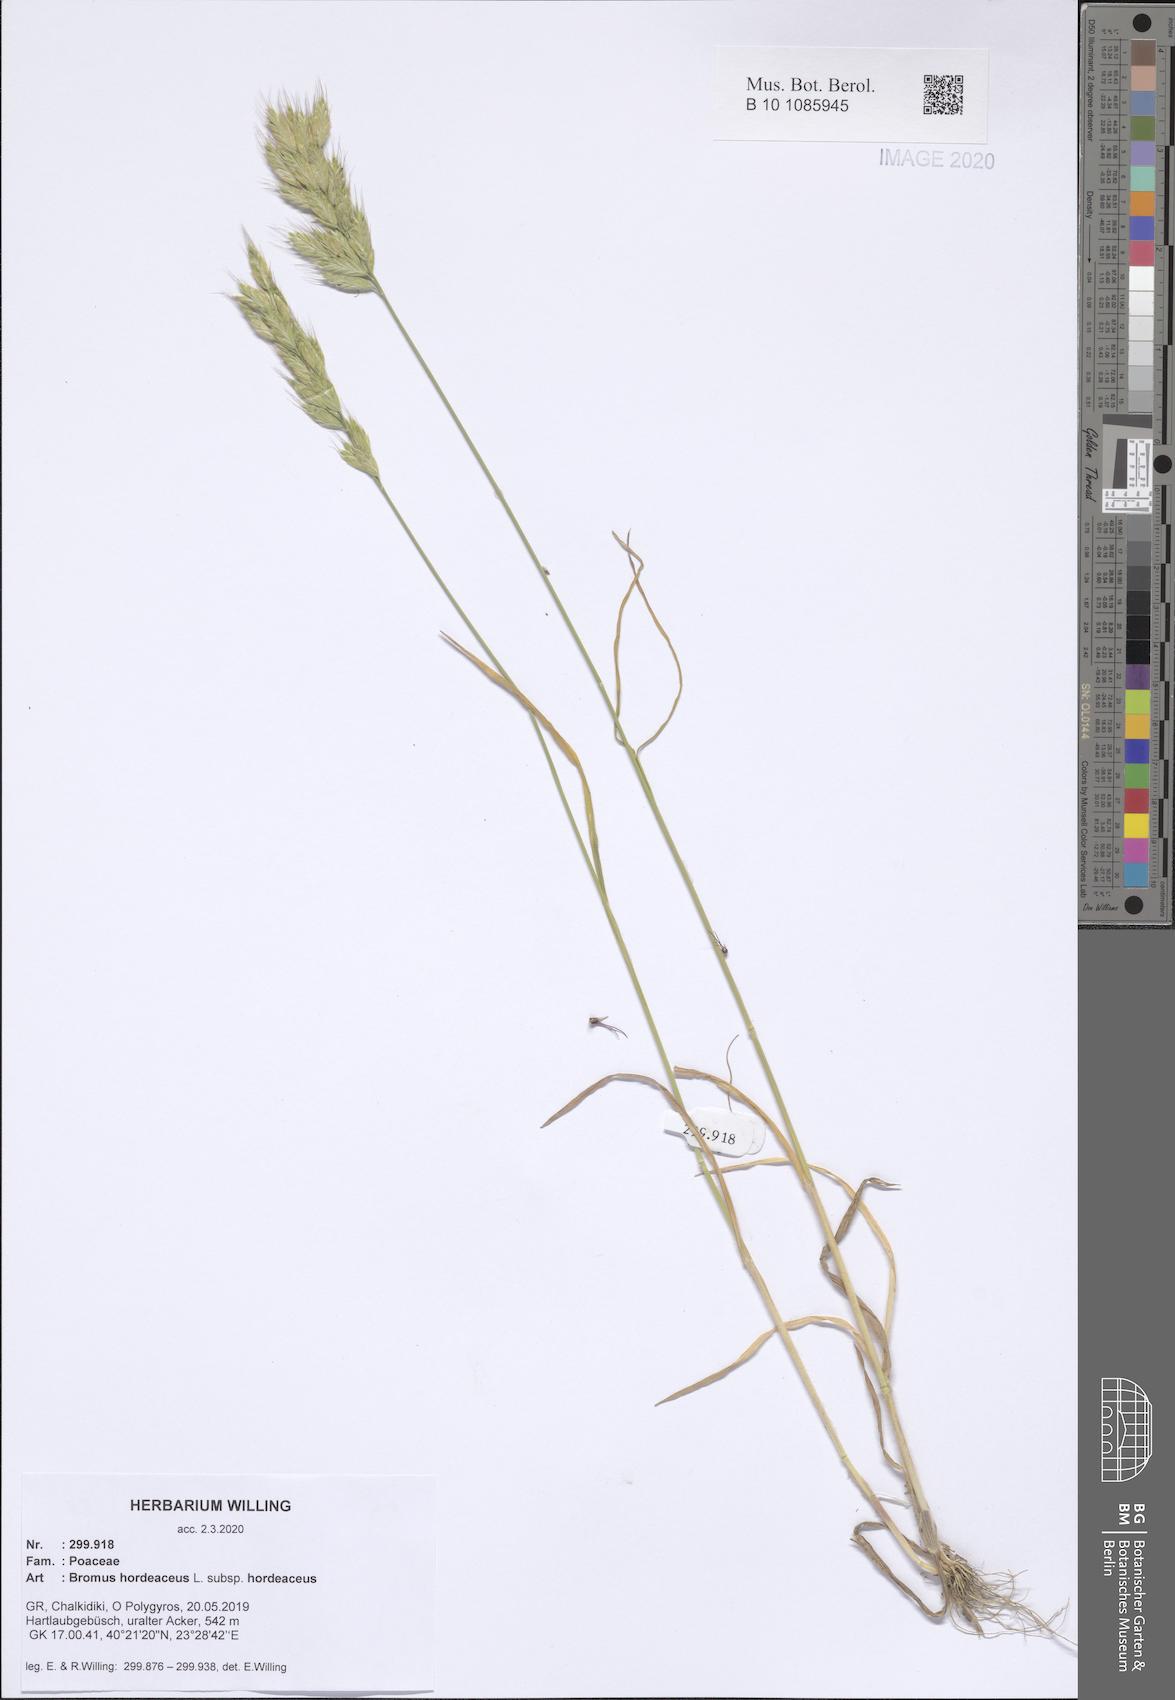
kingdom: Plantae
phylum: Tracheophyta
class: Liliopsida
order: Poales
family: Poaceae
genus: Bromus
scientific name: Bromus hordeaceus
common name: Soft brome
